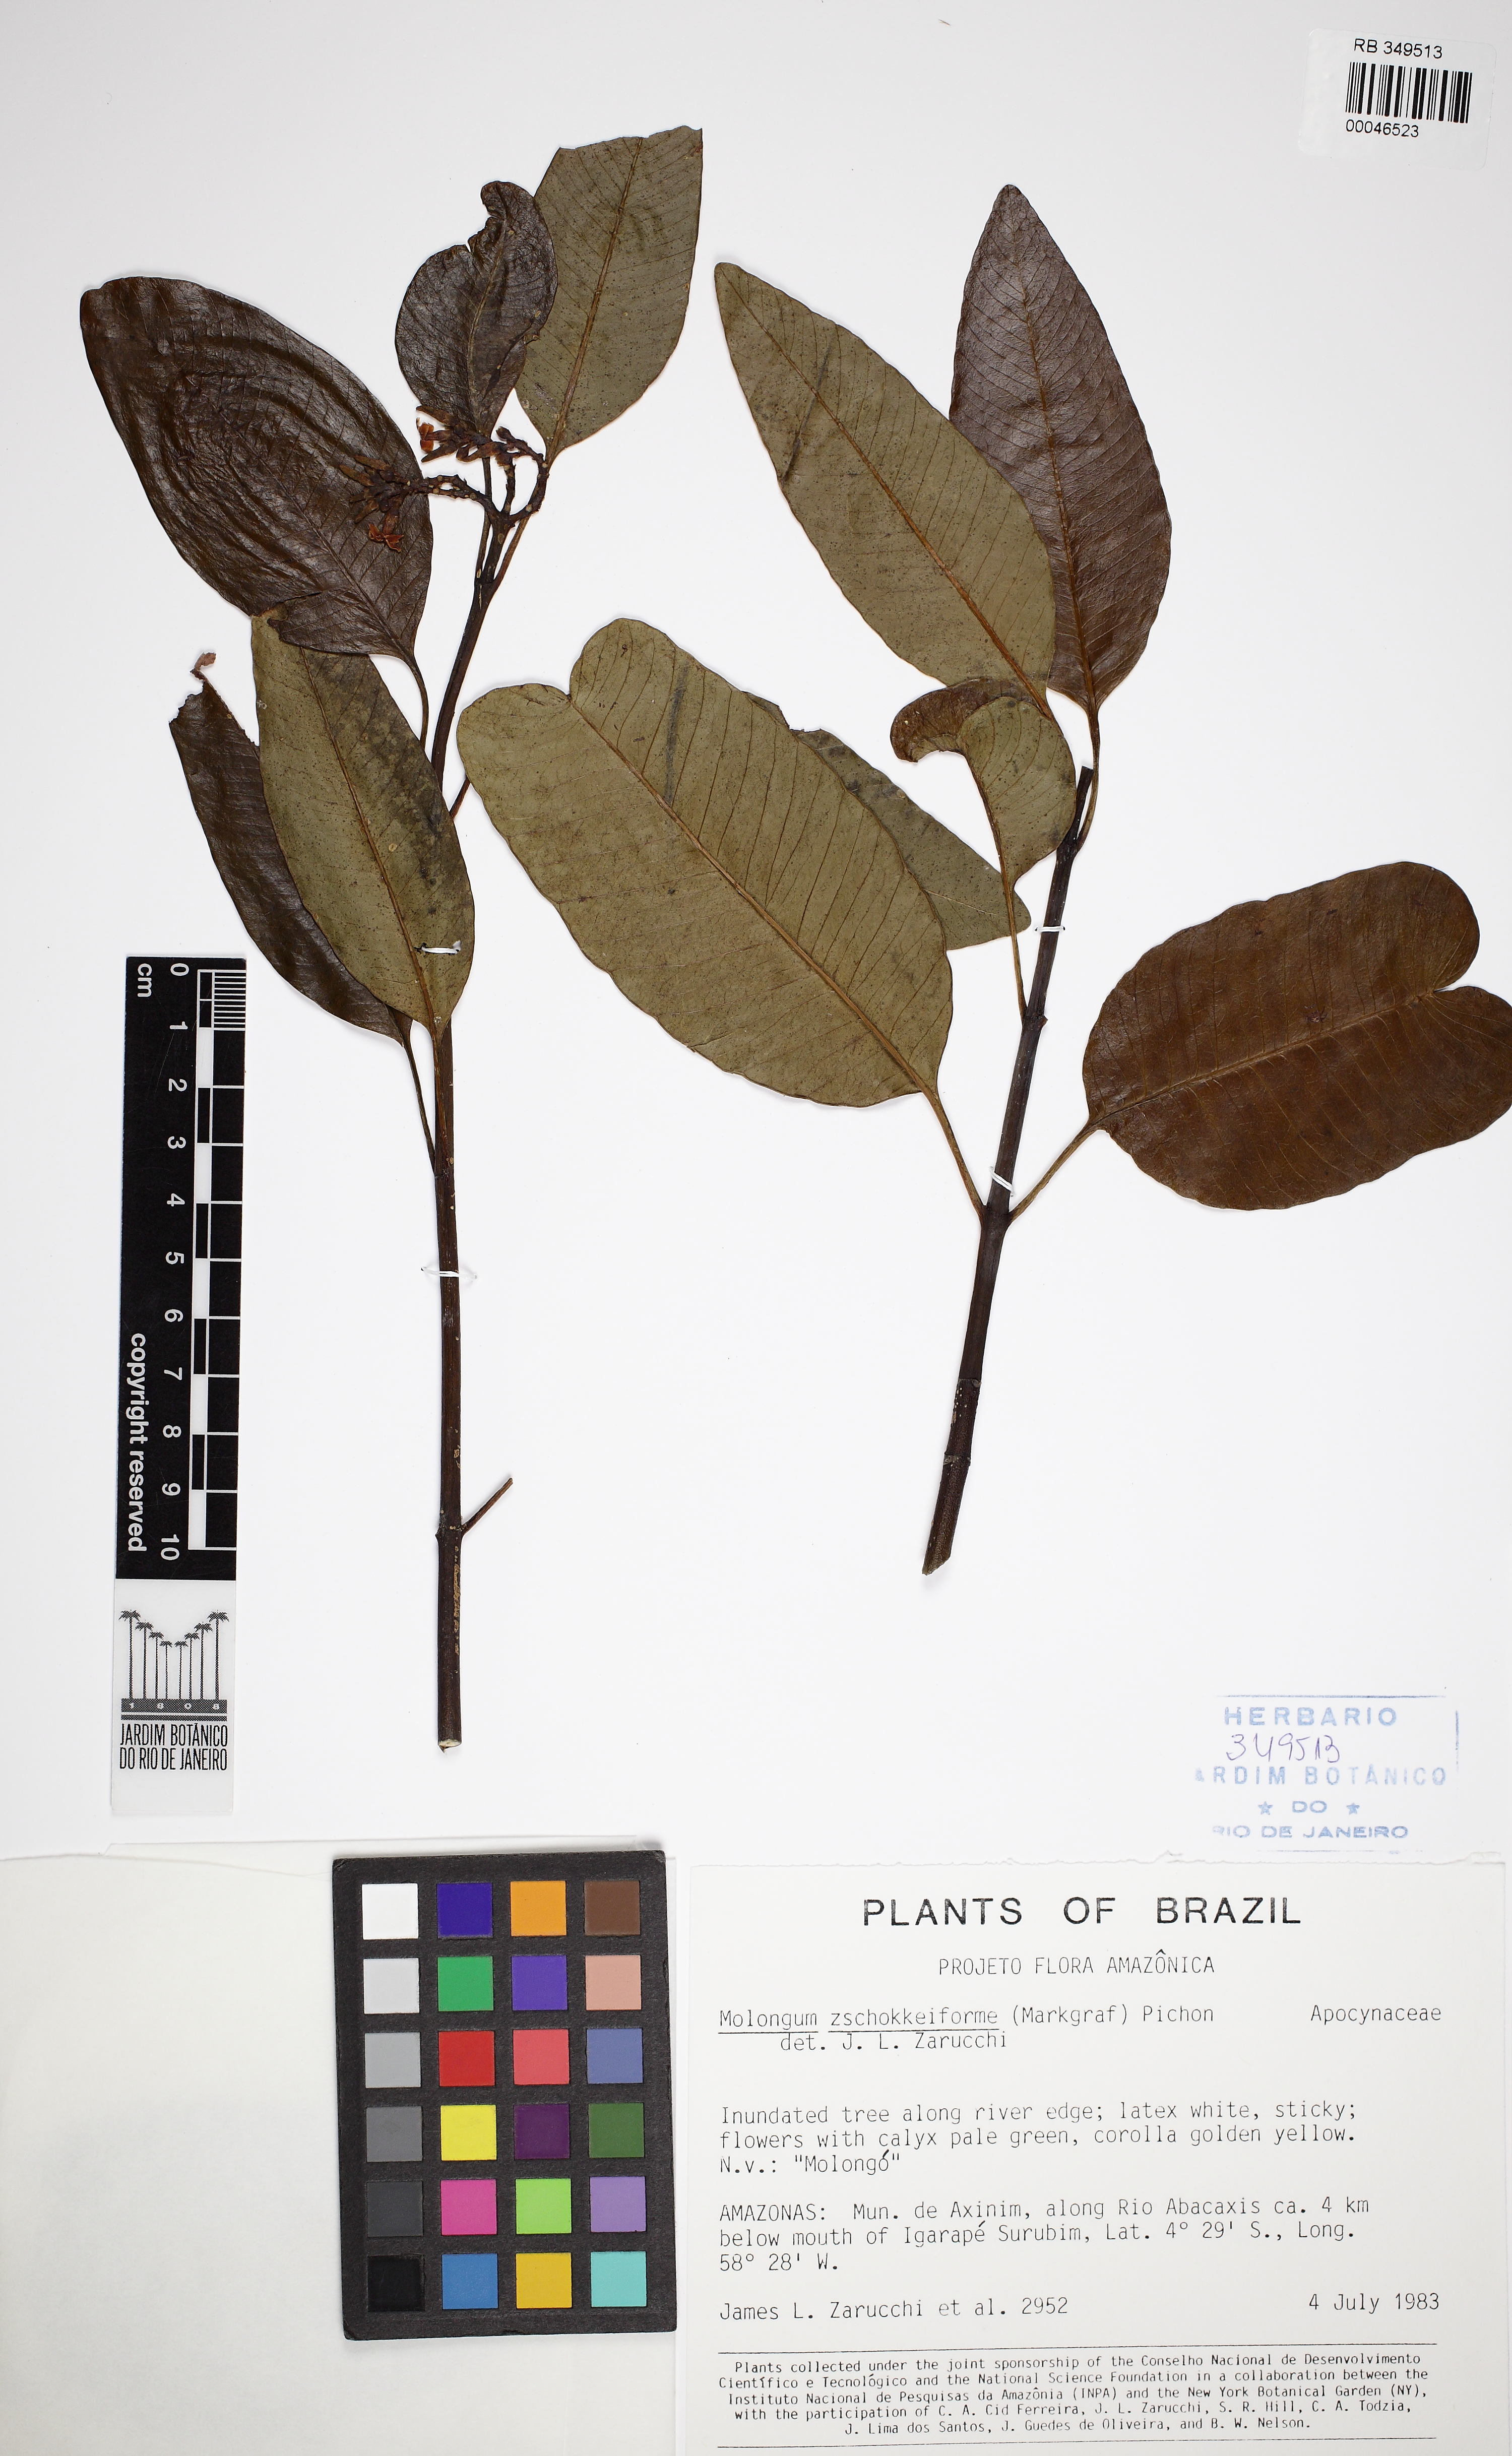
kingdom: Plantae
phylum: Tracheophyta
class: Magnoliopsida
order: Gentianales
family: Apocynaceae
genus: Molongum
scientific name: Molongum zschokkeiforme
